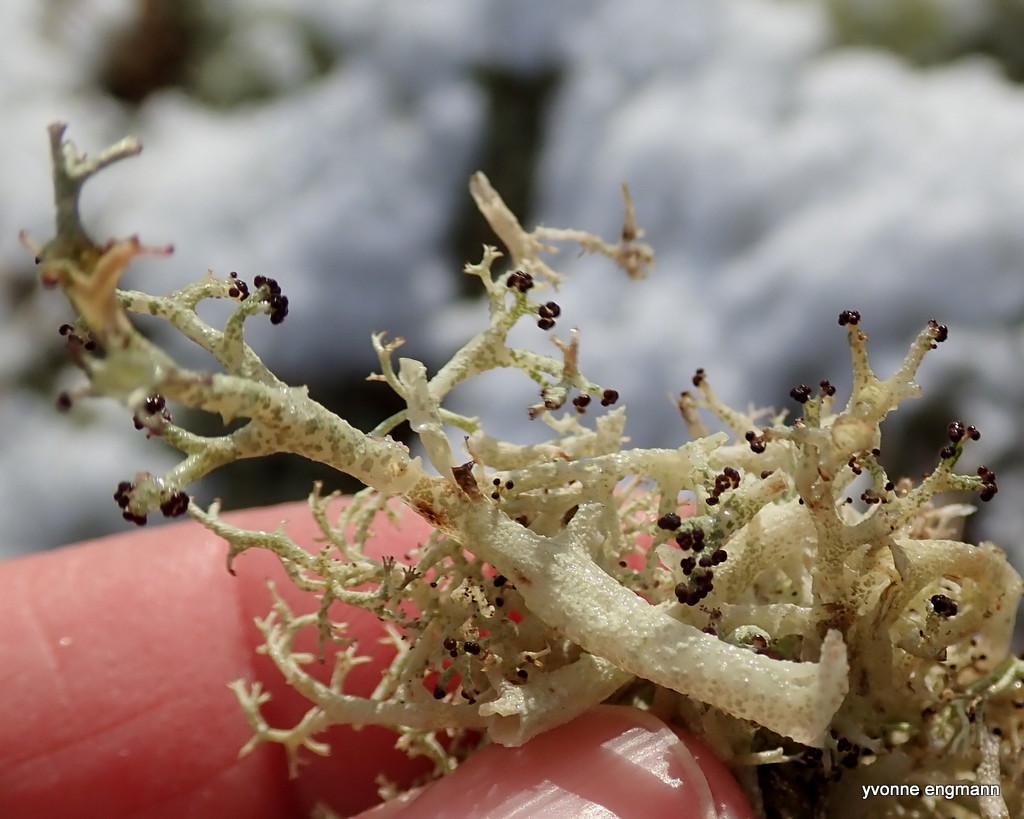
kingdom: Fungi
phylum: Ascomycota
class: Lecanoromycetes
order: Lecanorales
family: Cladoniaceae
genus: Cladonia
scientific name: Cladonia ciliata
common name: spinkel rensdyrlav
